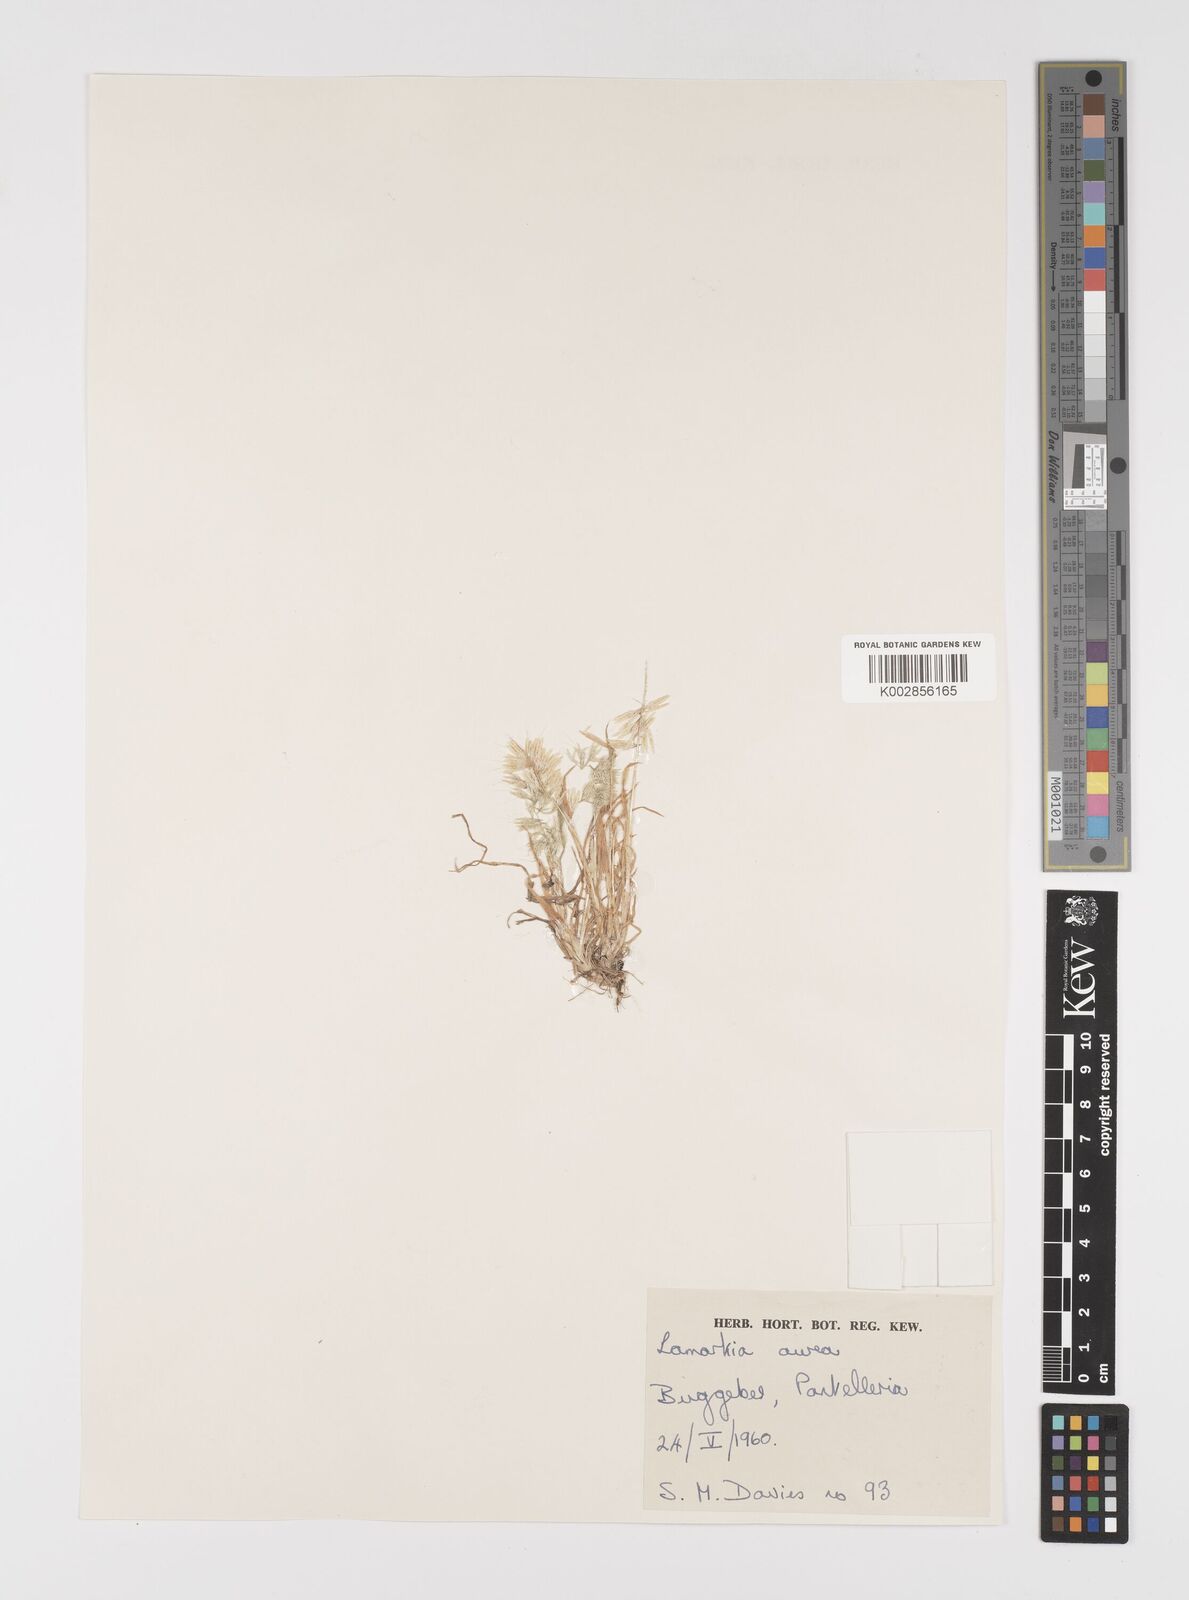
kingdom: Plantae
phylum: Tracheophyta
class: Liliopsida
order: Poales
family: Poaceae
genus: Lamarckia
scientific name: Lamarckia aurea
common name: Golden dog's-tail
